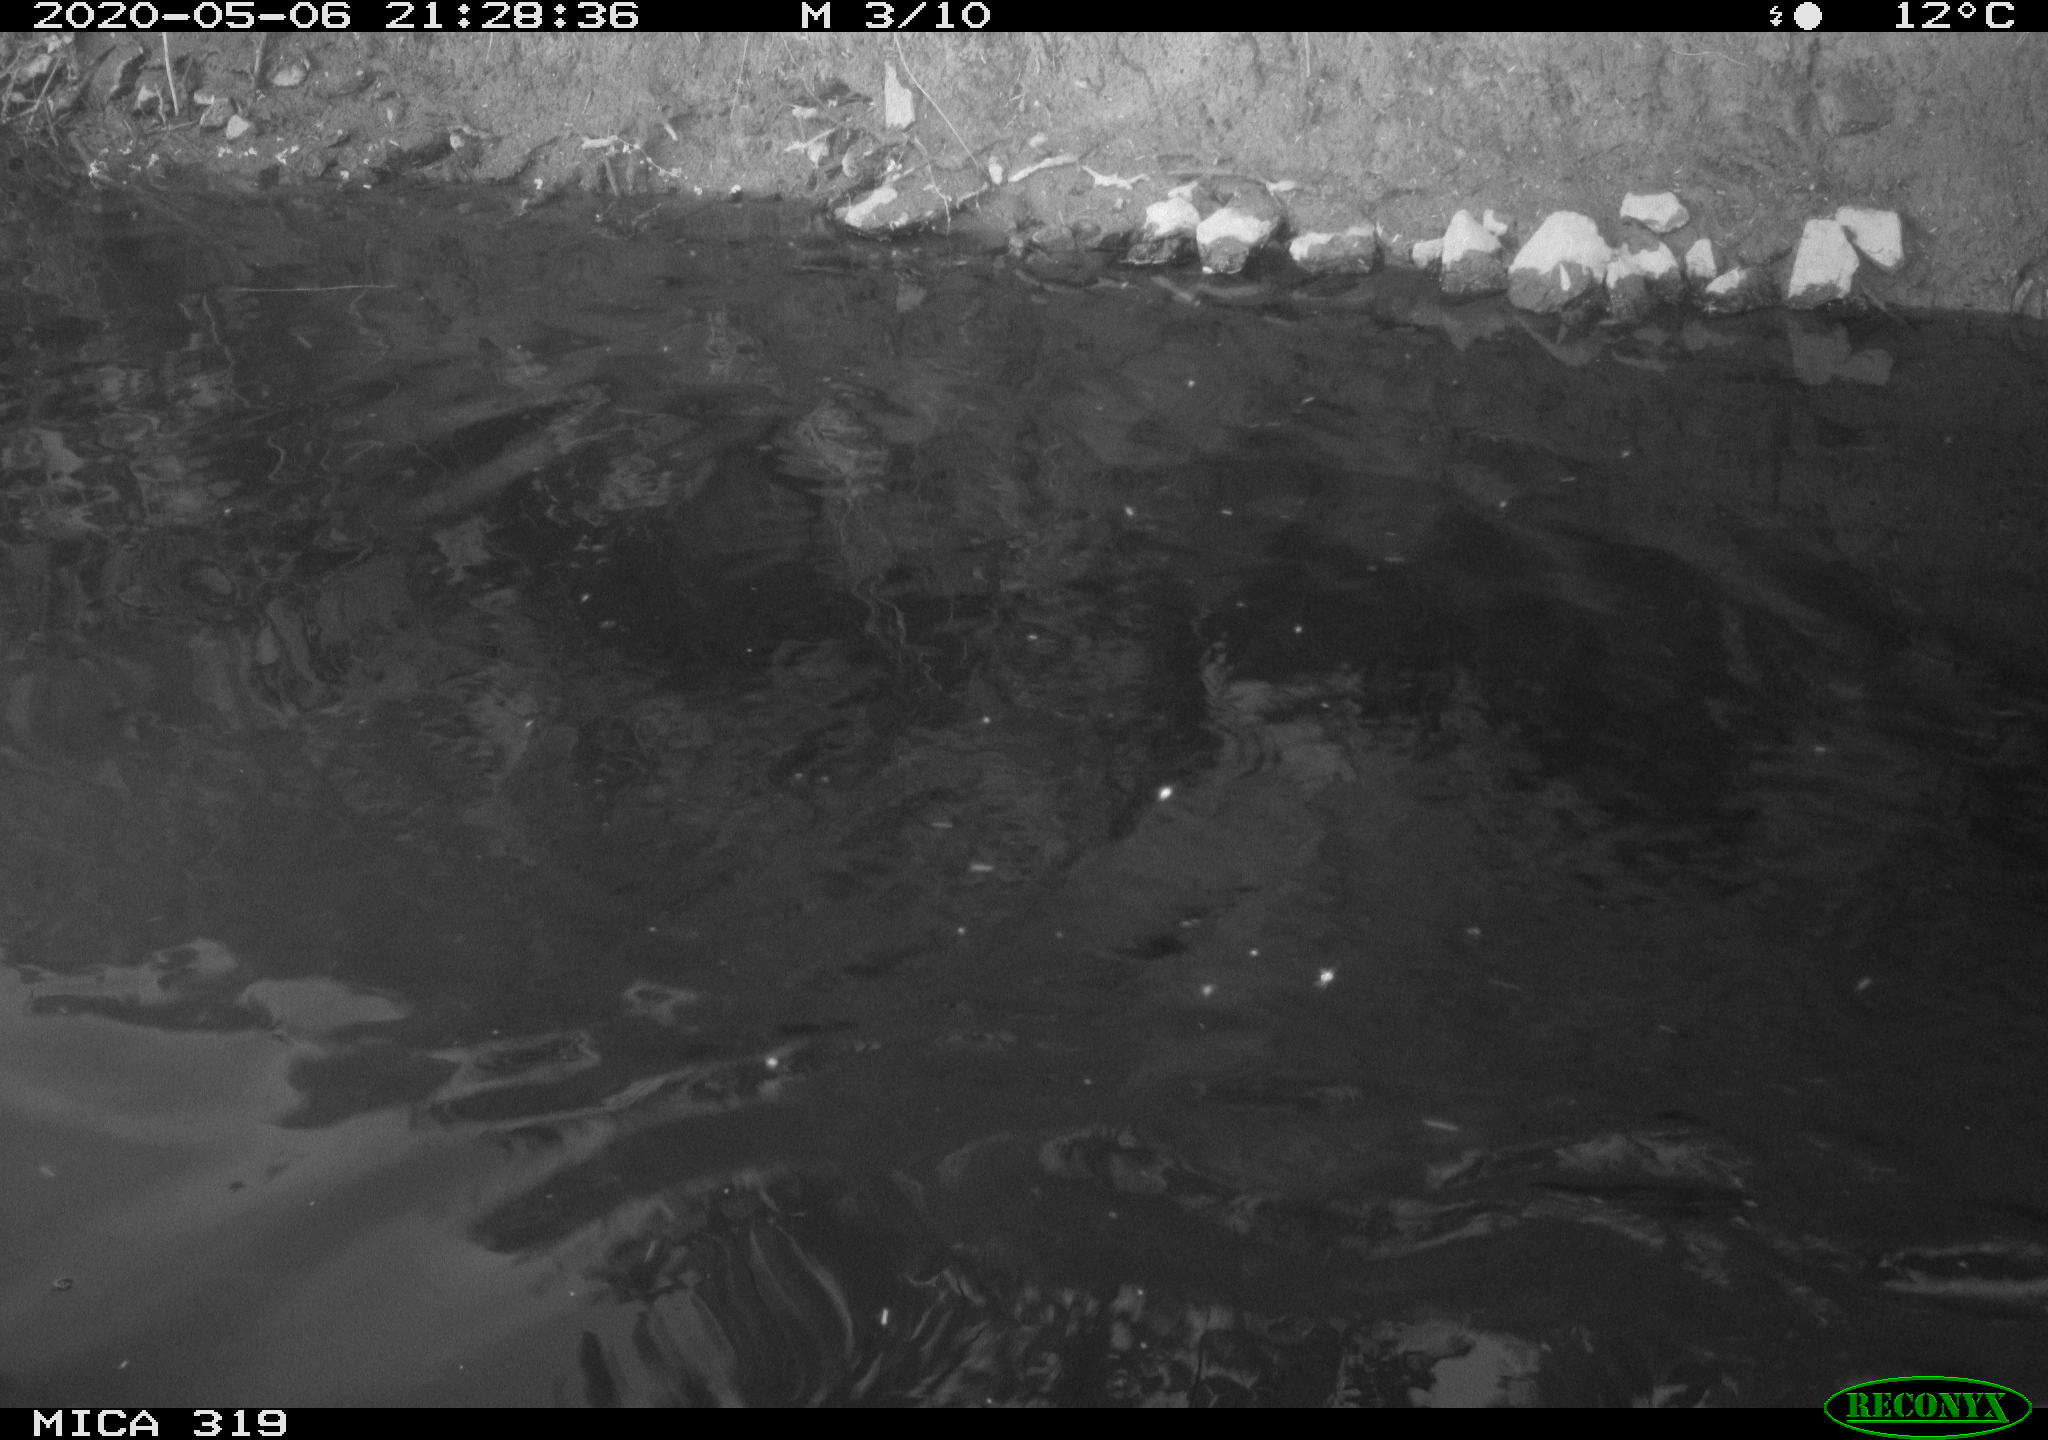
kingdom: Animalia
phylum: Chordata
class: Aves
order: Anseriformes
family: Anatidae
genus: Anas
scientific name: Anas platyrhynchos
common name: Mallard
